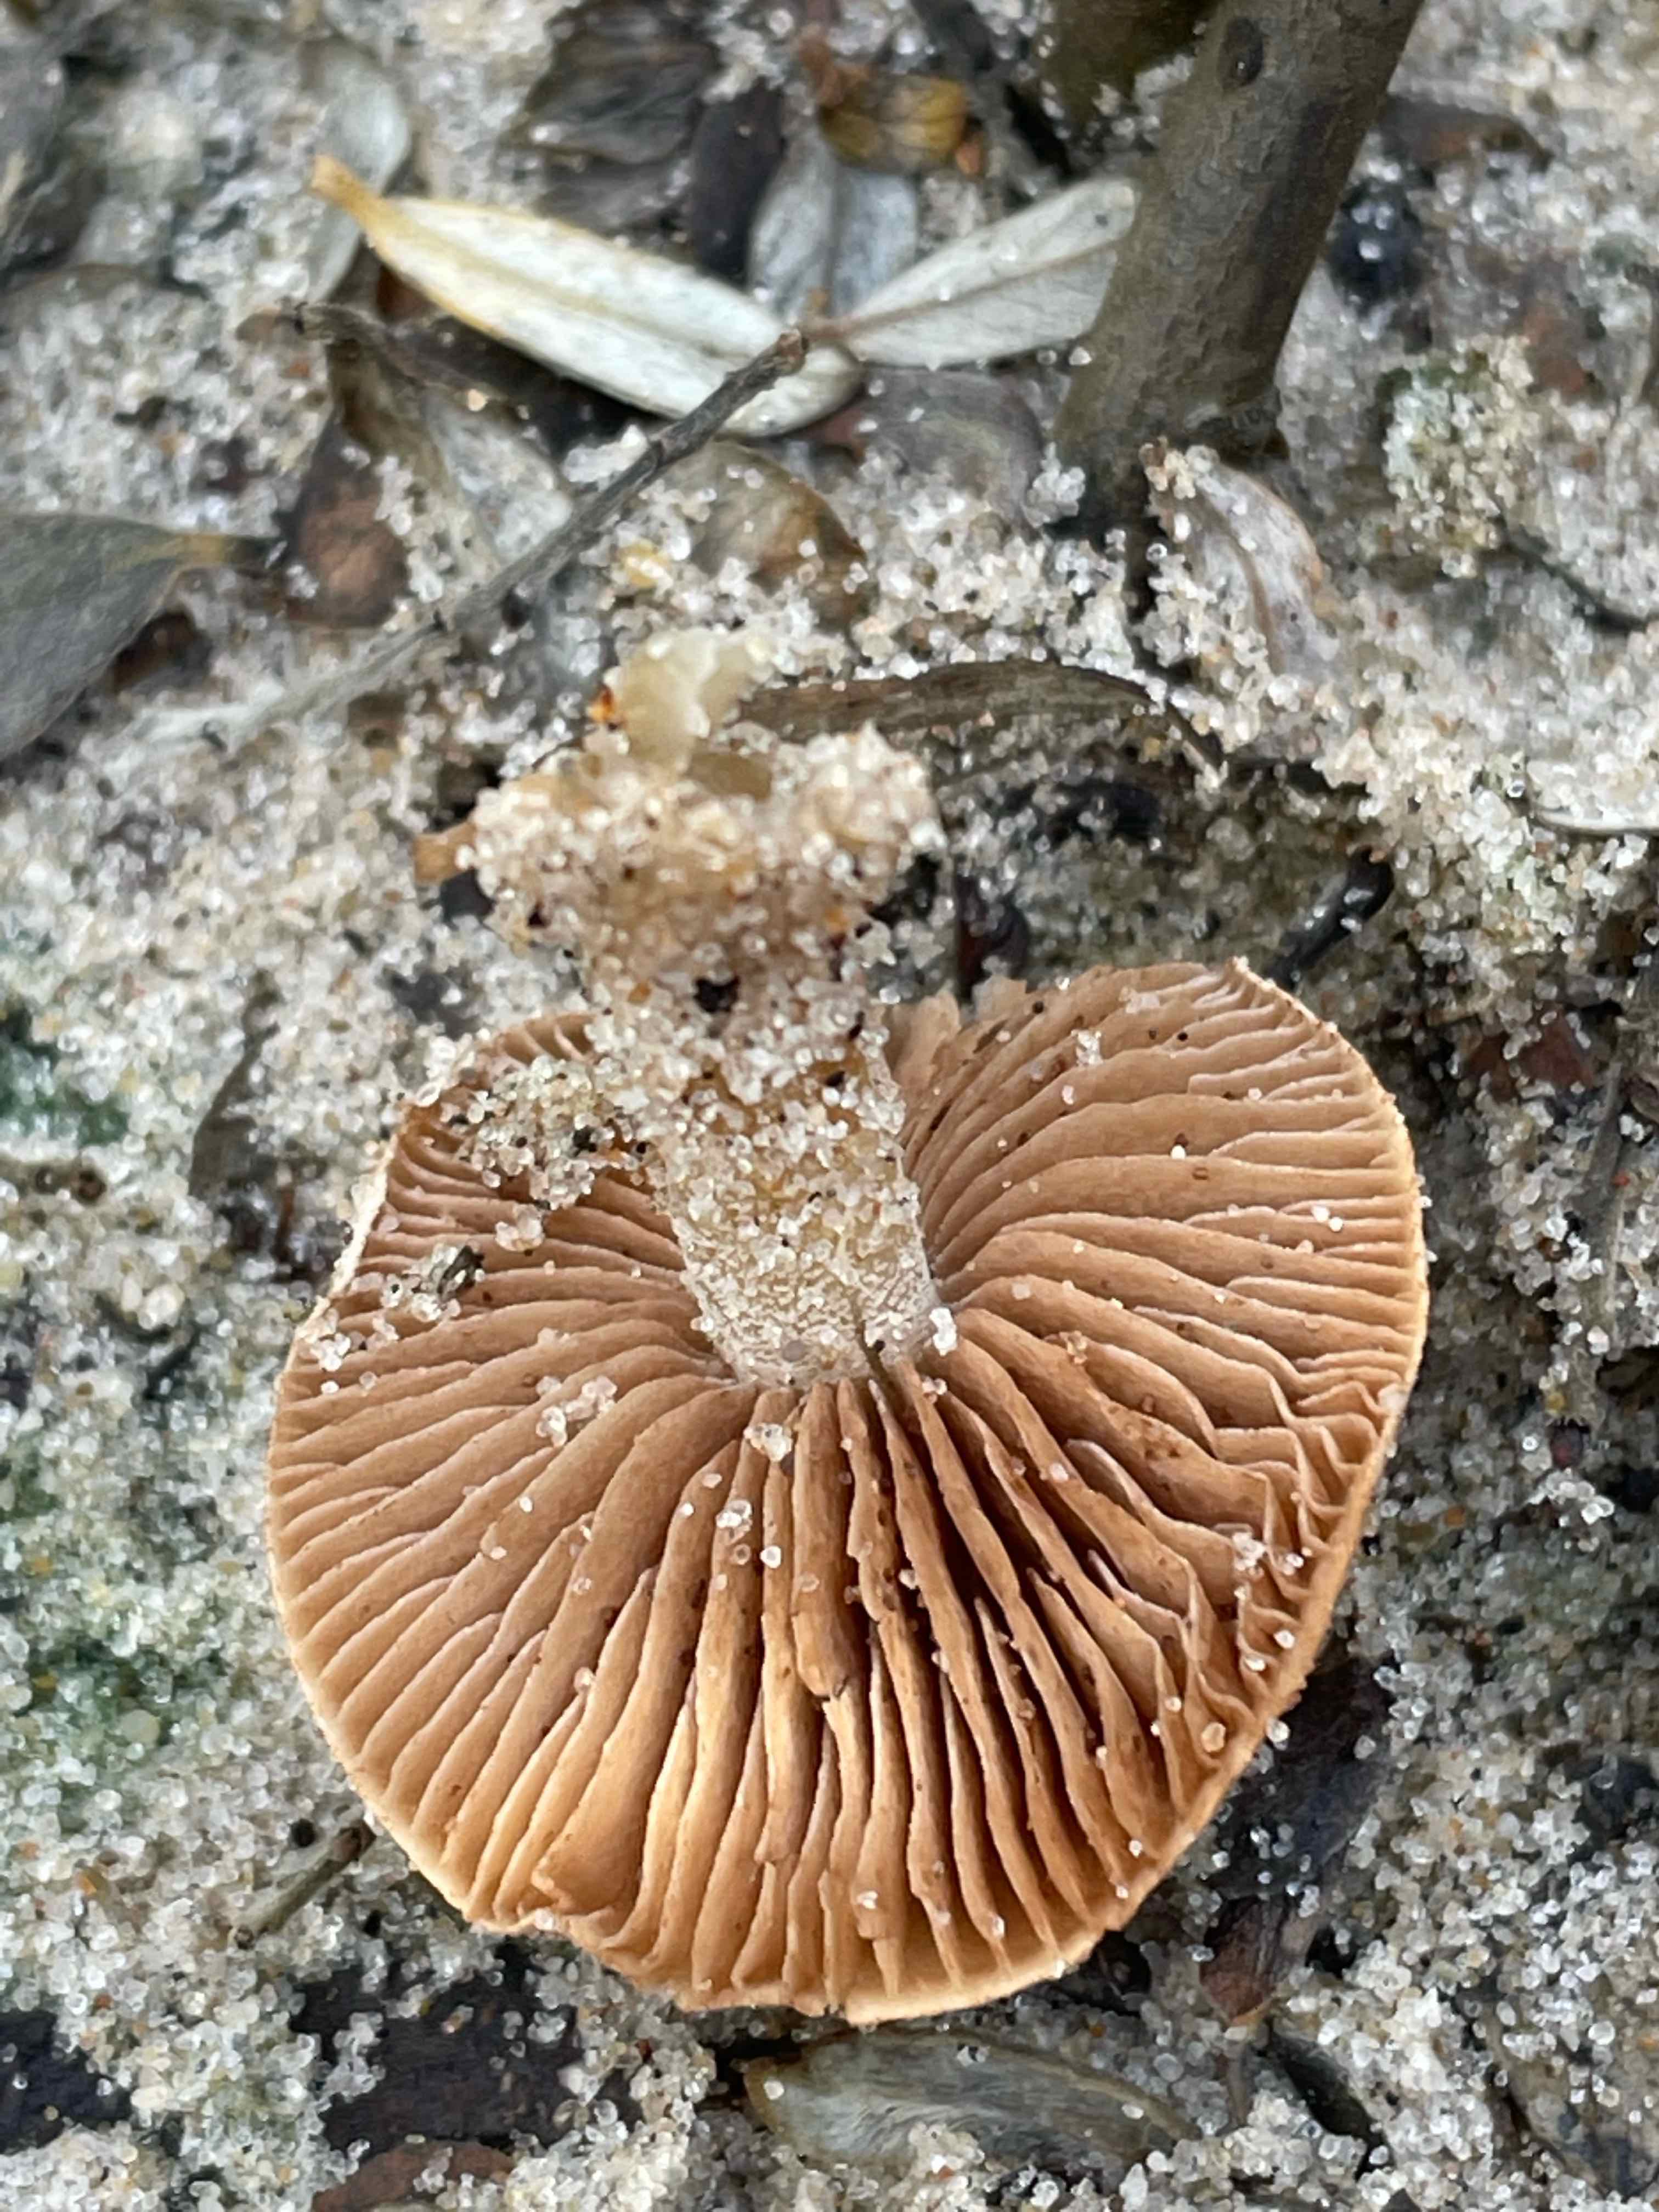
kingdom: Fungi
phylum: Basidiomycota
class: Agaricomycetes
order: Agaricales
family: Hymenogastraceae
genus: Hebeloma
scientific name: Hebeloma
